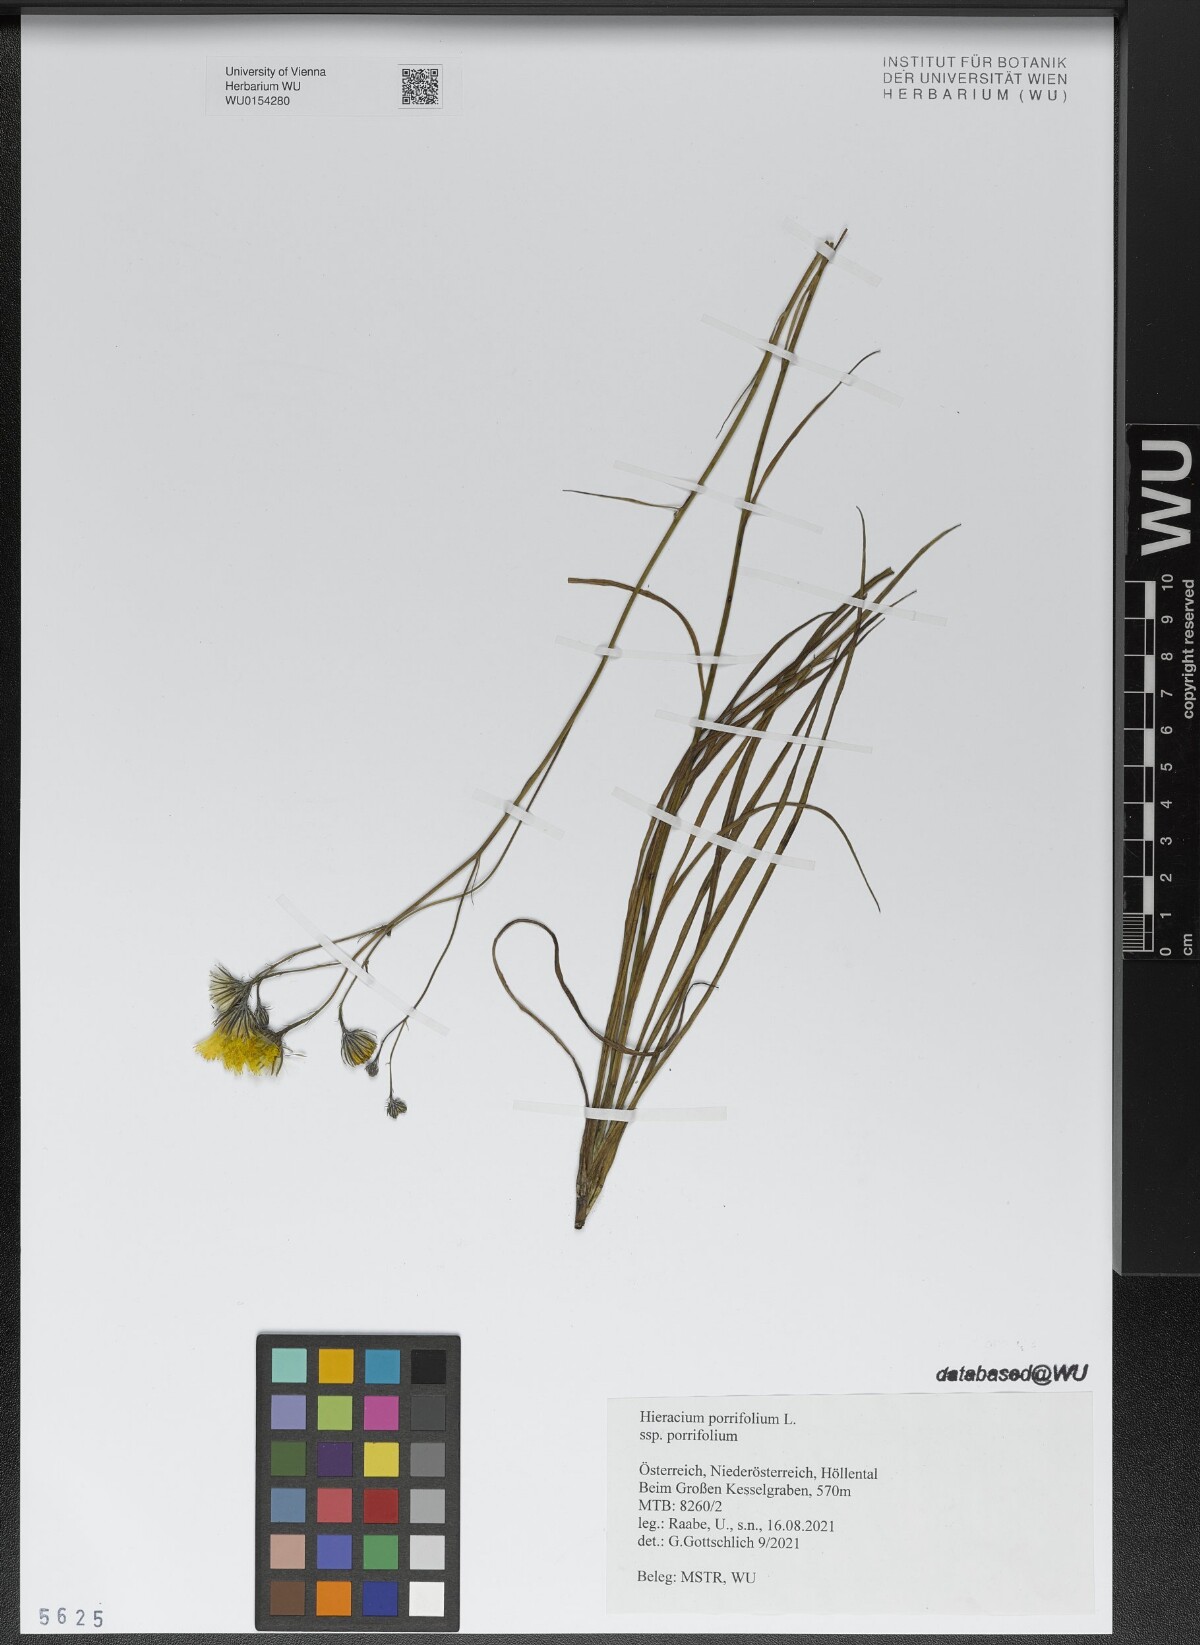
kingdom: Plantae
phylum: Tracheophyta
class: Magnoliopsida
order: Asterales
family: Asteraceae
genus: Hieracium
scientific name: Hieracium porrifolium
